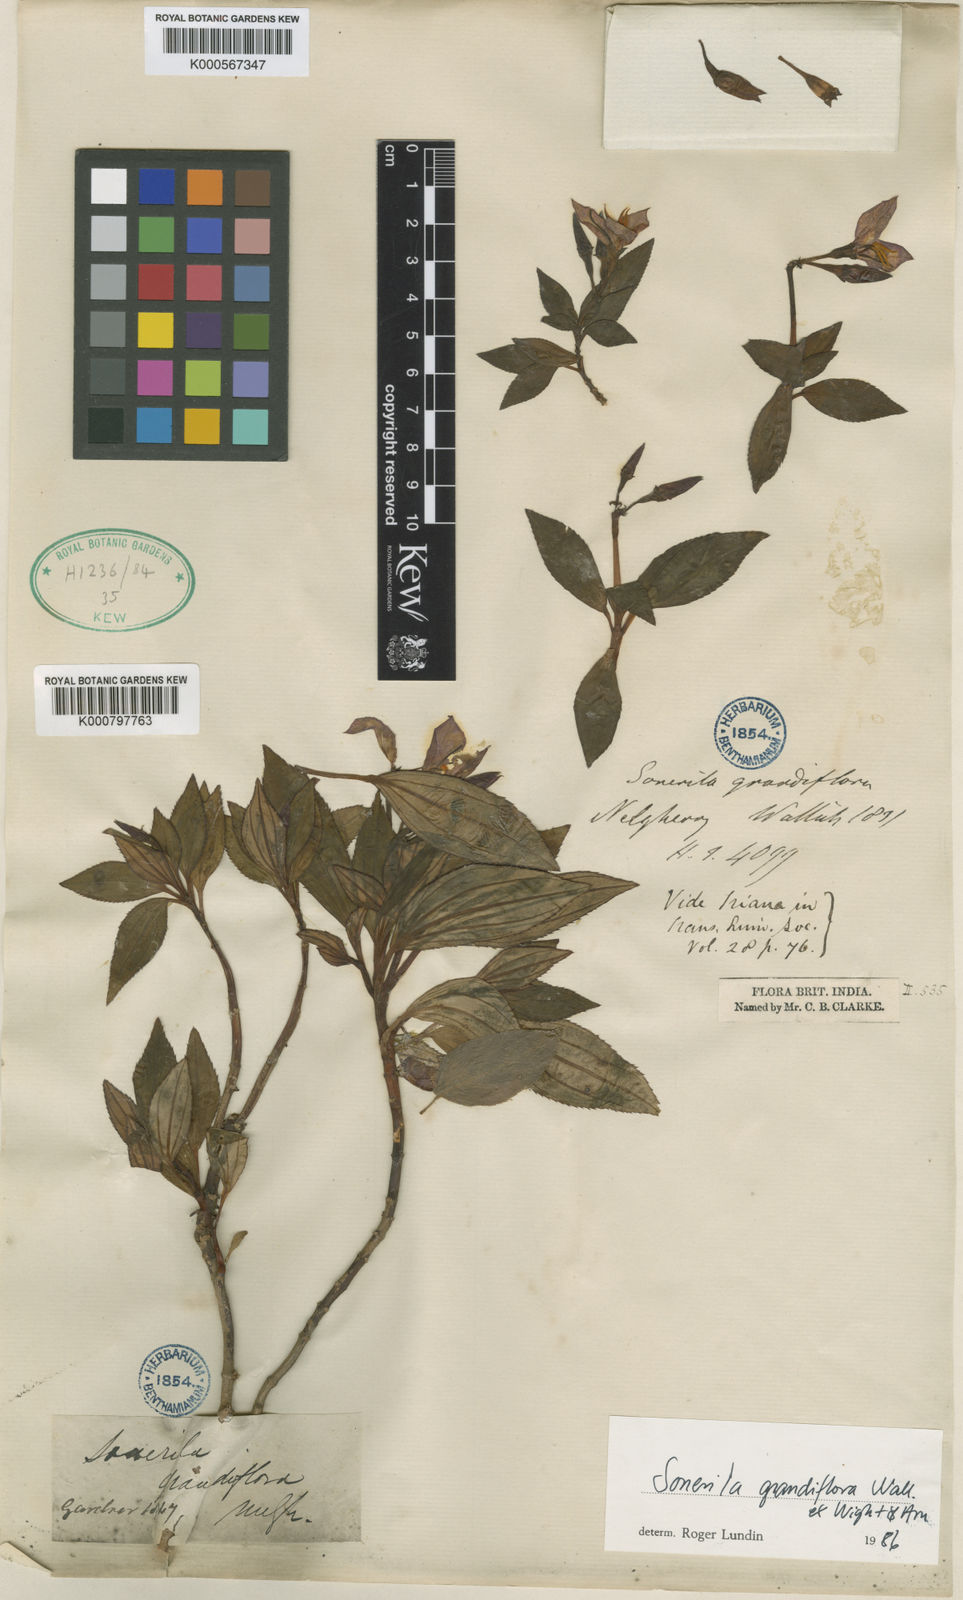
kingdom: Plantae
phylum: Tracheophyta
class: Magnoliopsida
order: Myrtales
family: Melastomataceae
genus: Sonerila
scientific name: Sonerila
